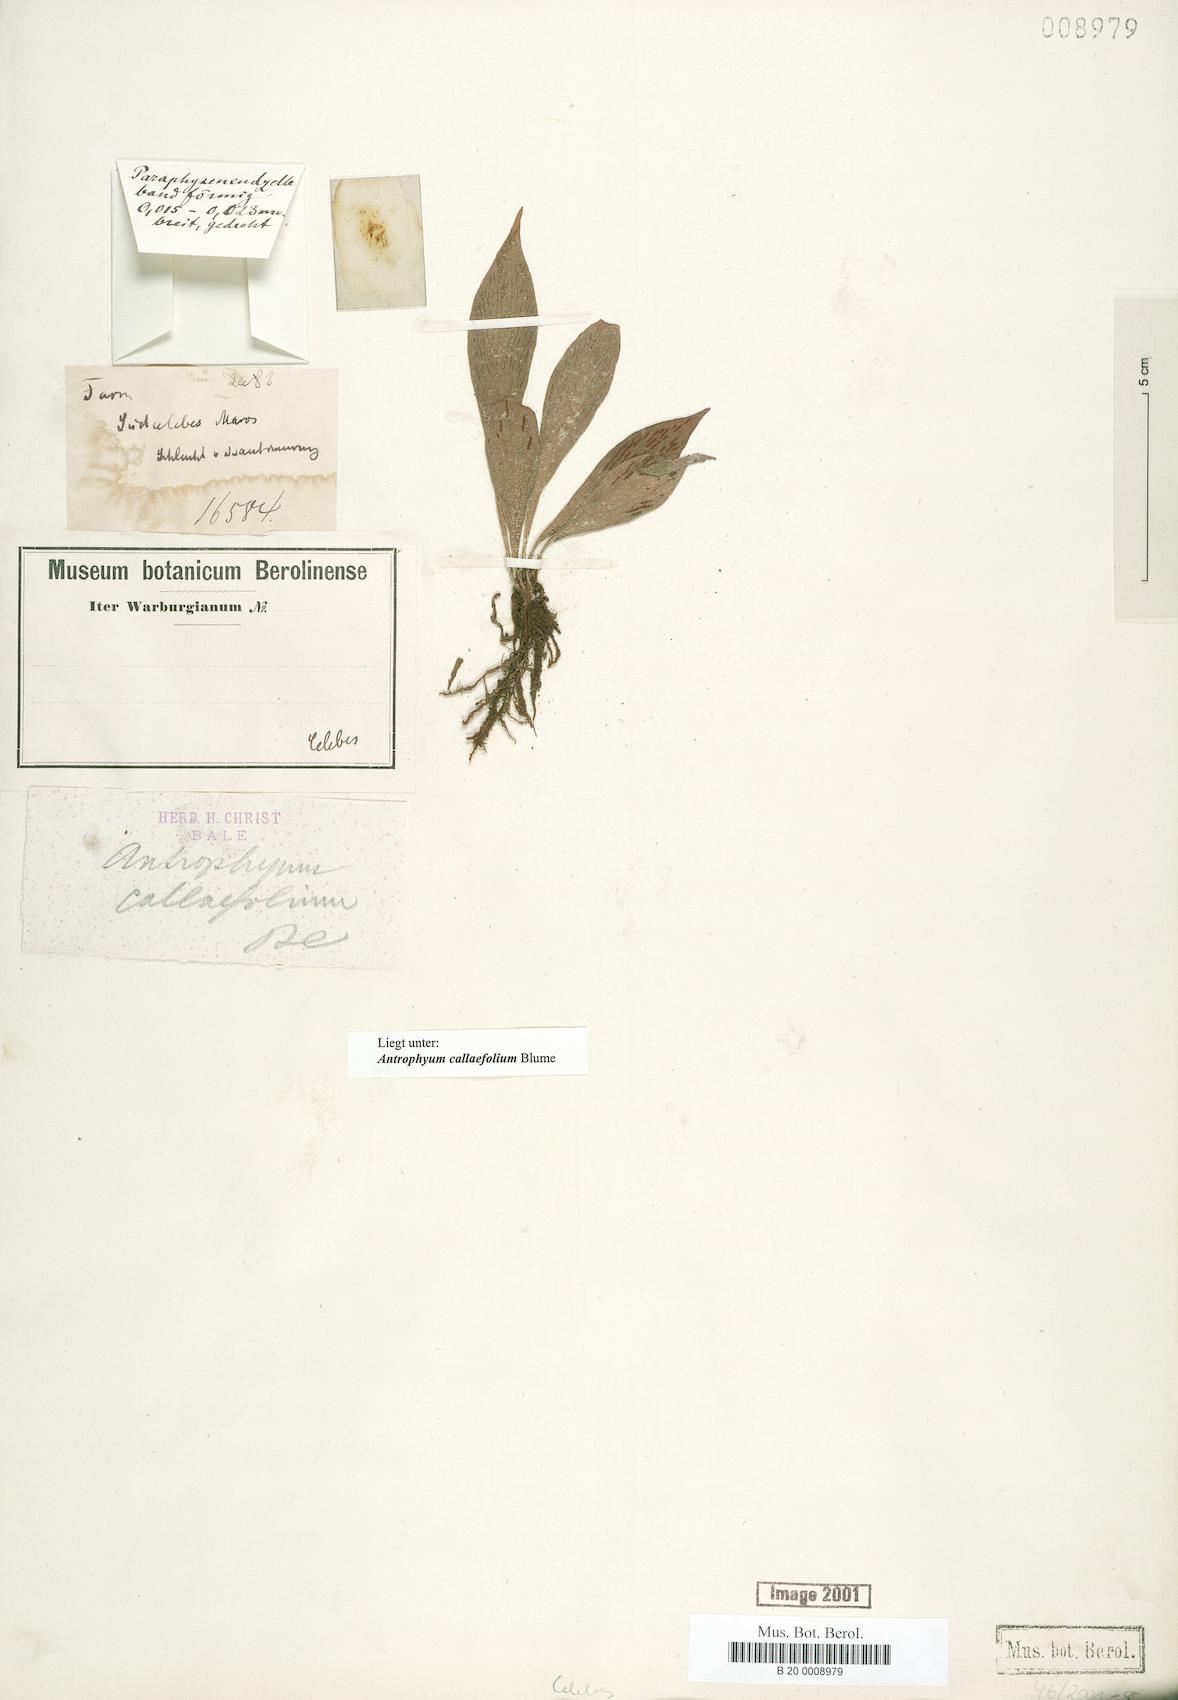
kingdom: Plantae
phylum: Tracheophyta
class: Polypodiopsida
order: Polypodiales
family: Pteridaceae
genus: Antrophyum
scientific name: Antrophyum callifolium
